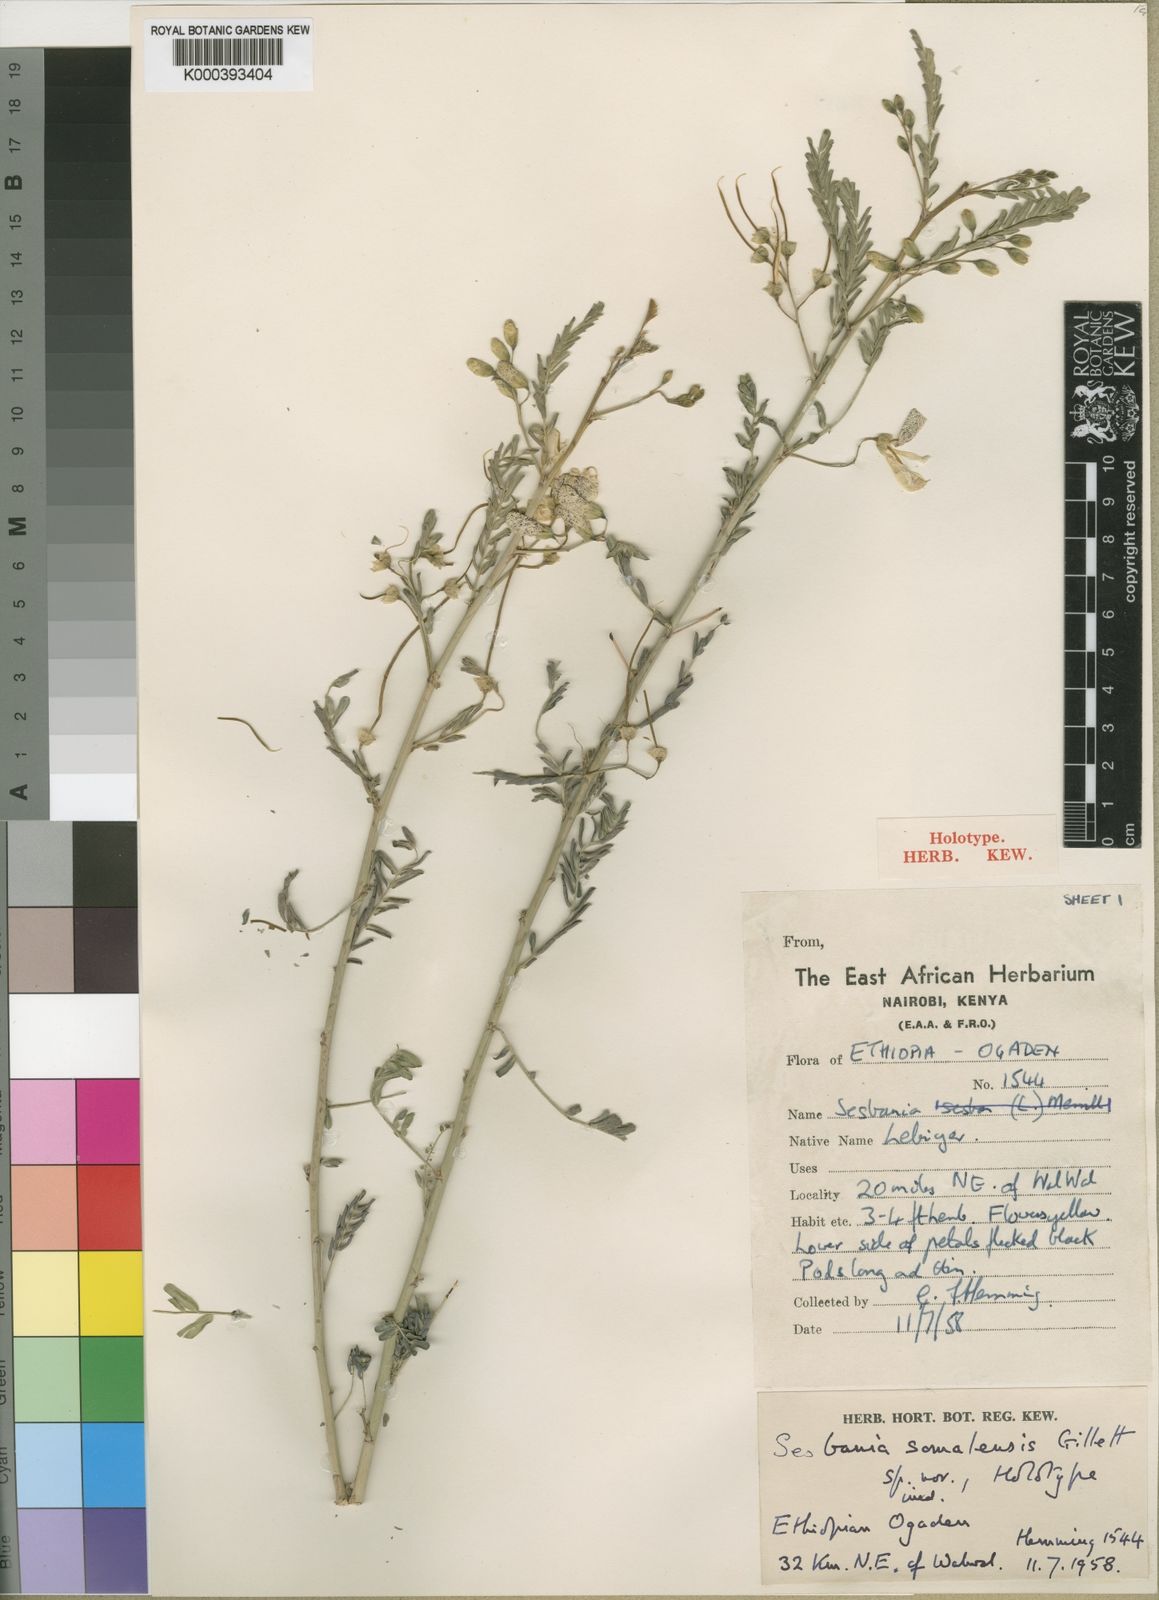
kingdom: Plantae
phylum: Tracheophyta
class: Magnoliopsida
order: Fabales
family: Fabaceae
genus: Sesbania
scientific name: Sesbania somalensis
